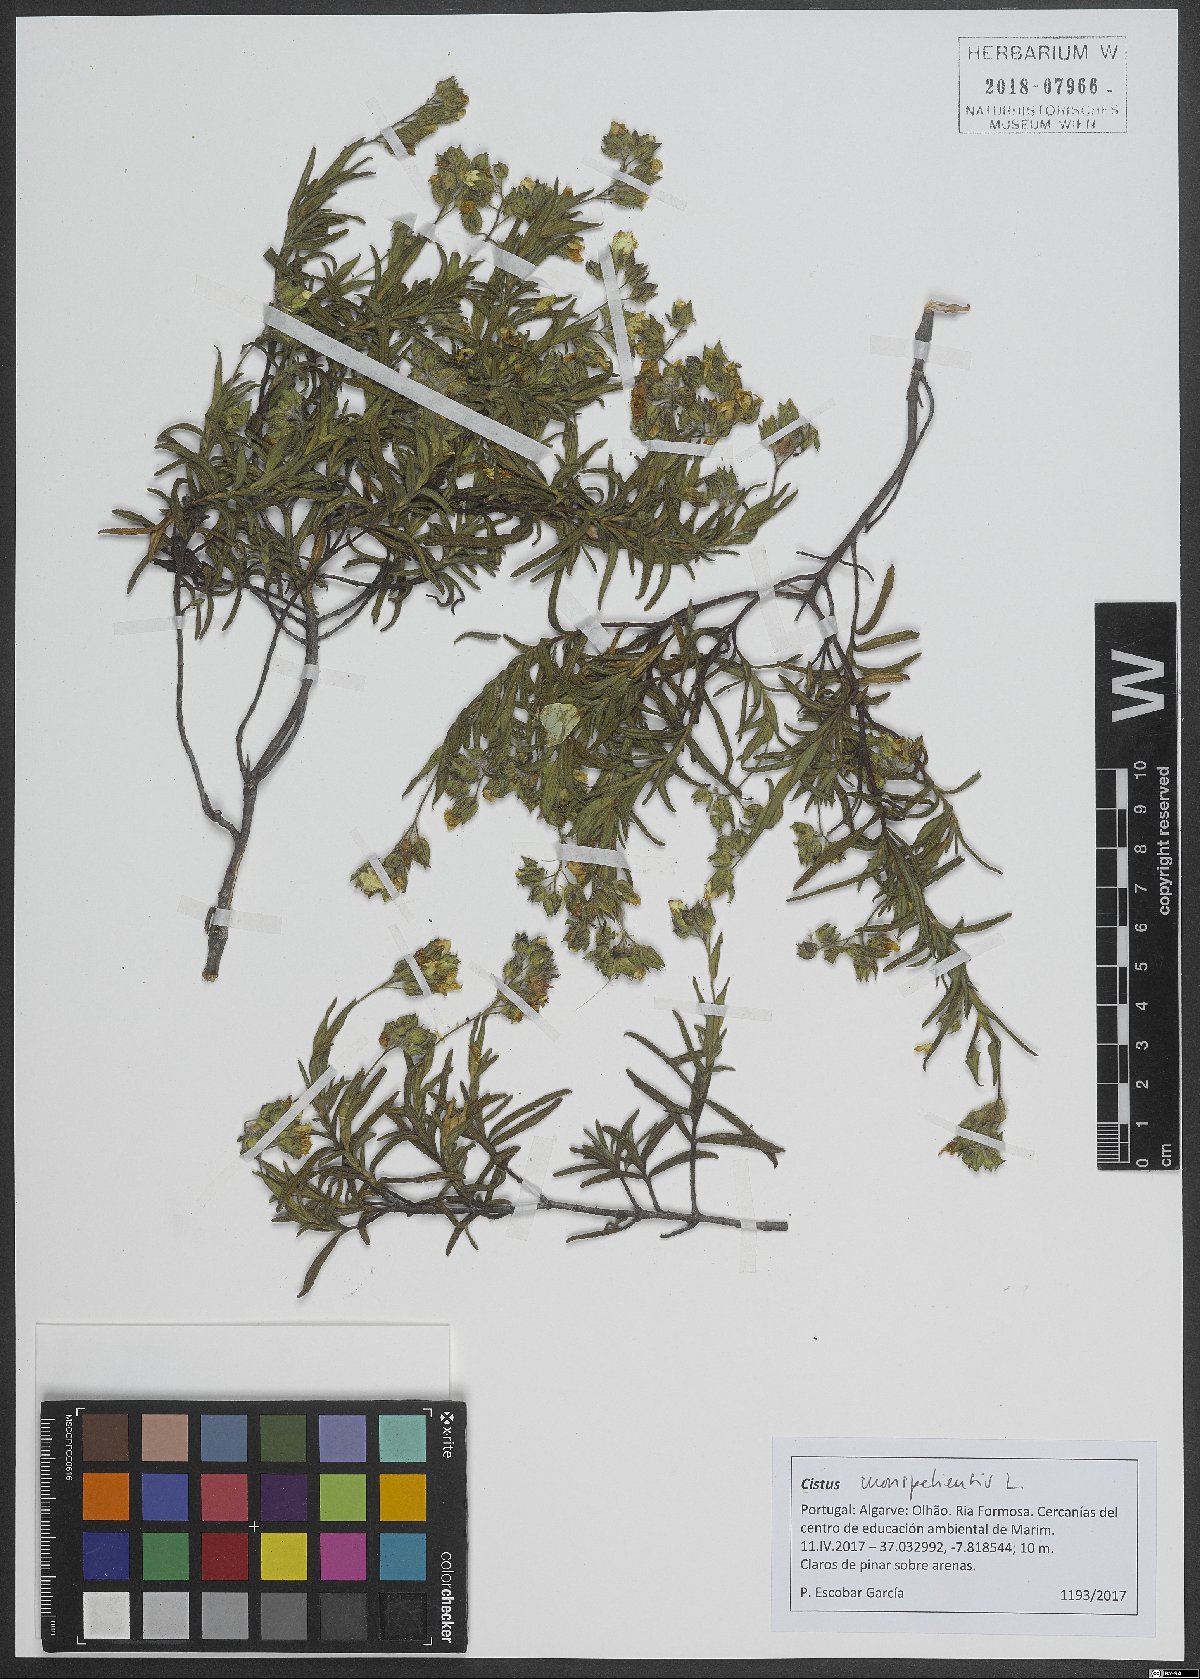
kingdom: Plantae
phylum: Tracheophyta
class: Magnoliopsida
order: Malvales
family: Cistaceae
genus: Cistus
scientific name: Cistus monspeliensis
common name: Montpelier cistus
